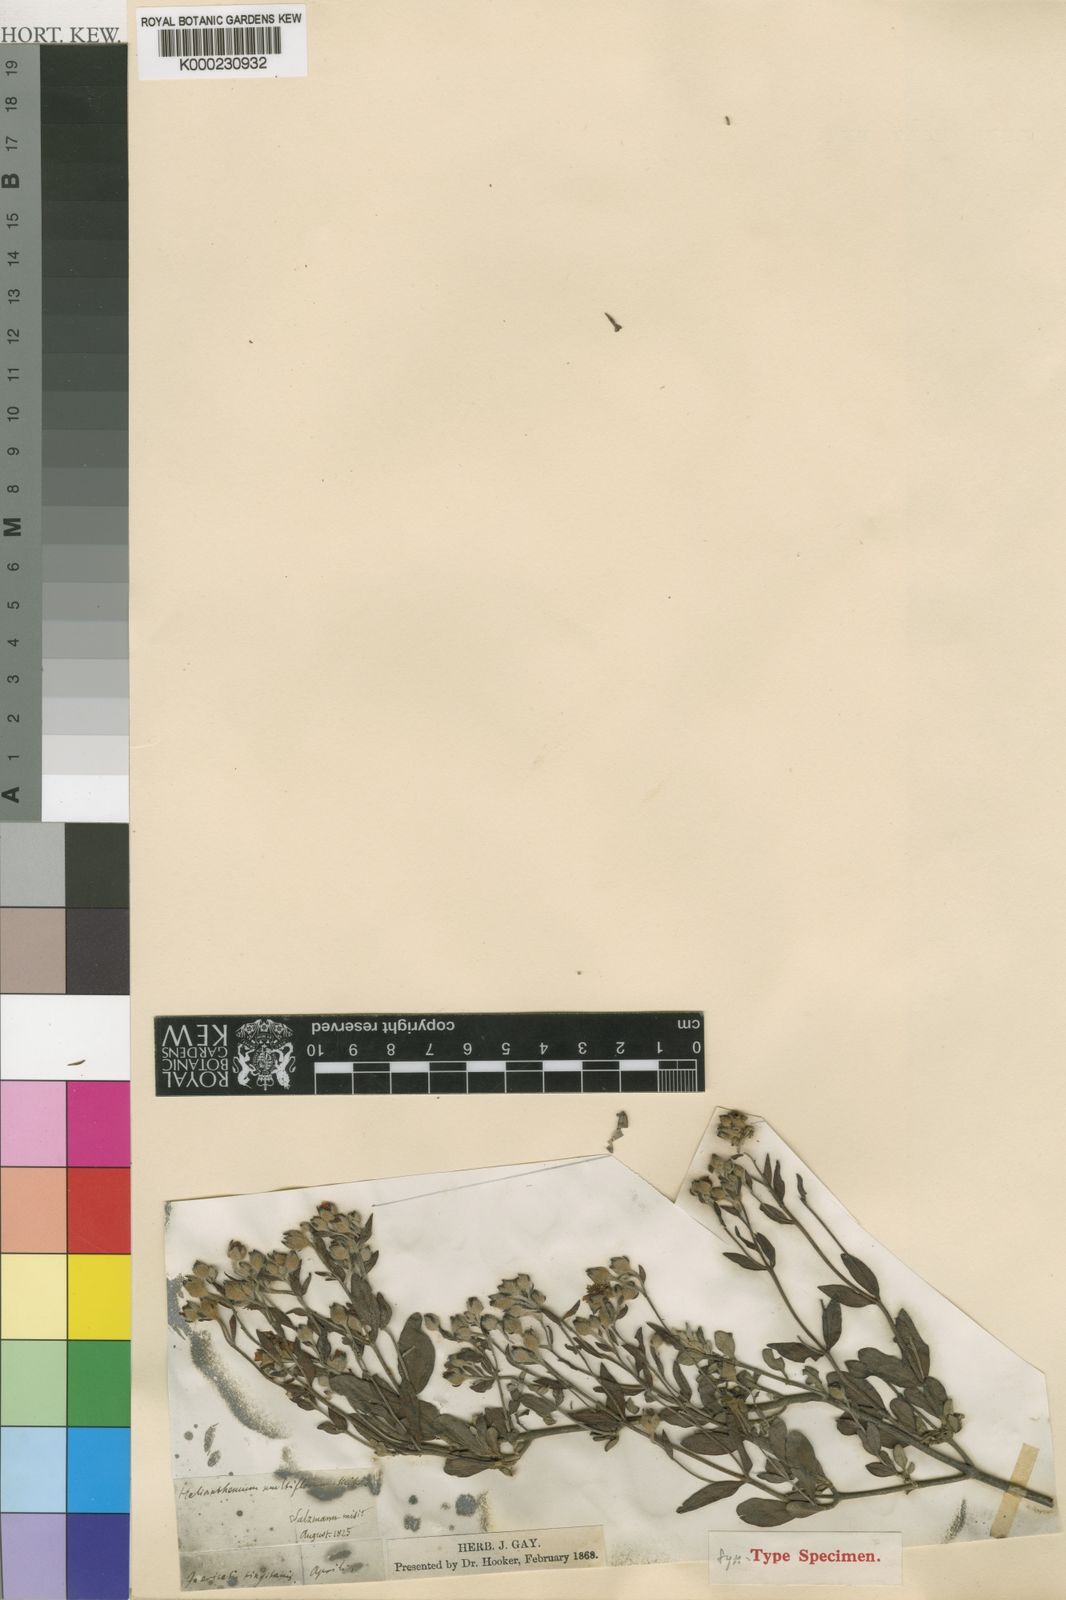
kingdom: Plantae
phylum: Tracheophyta
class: Magnoliopsida
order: Malvales
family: Cistaceae
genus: Halimium
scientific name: Halimium halimifolium
